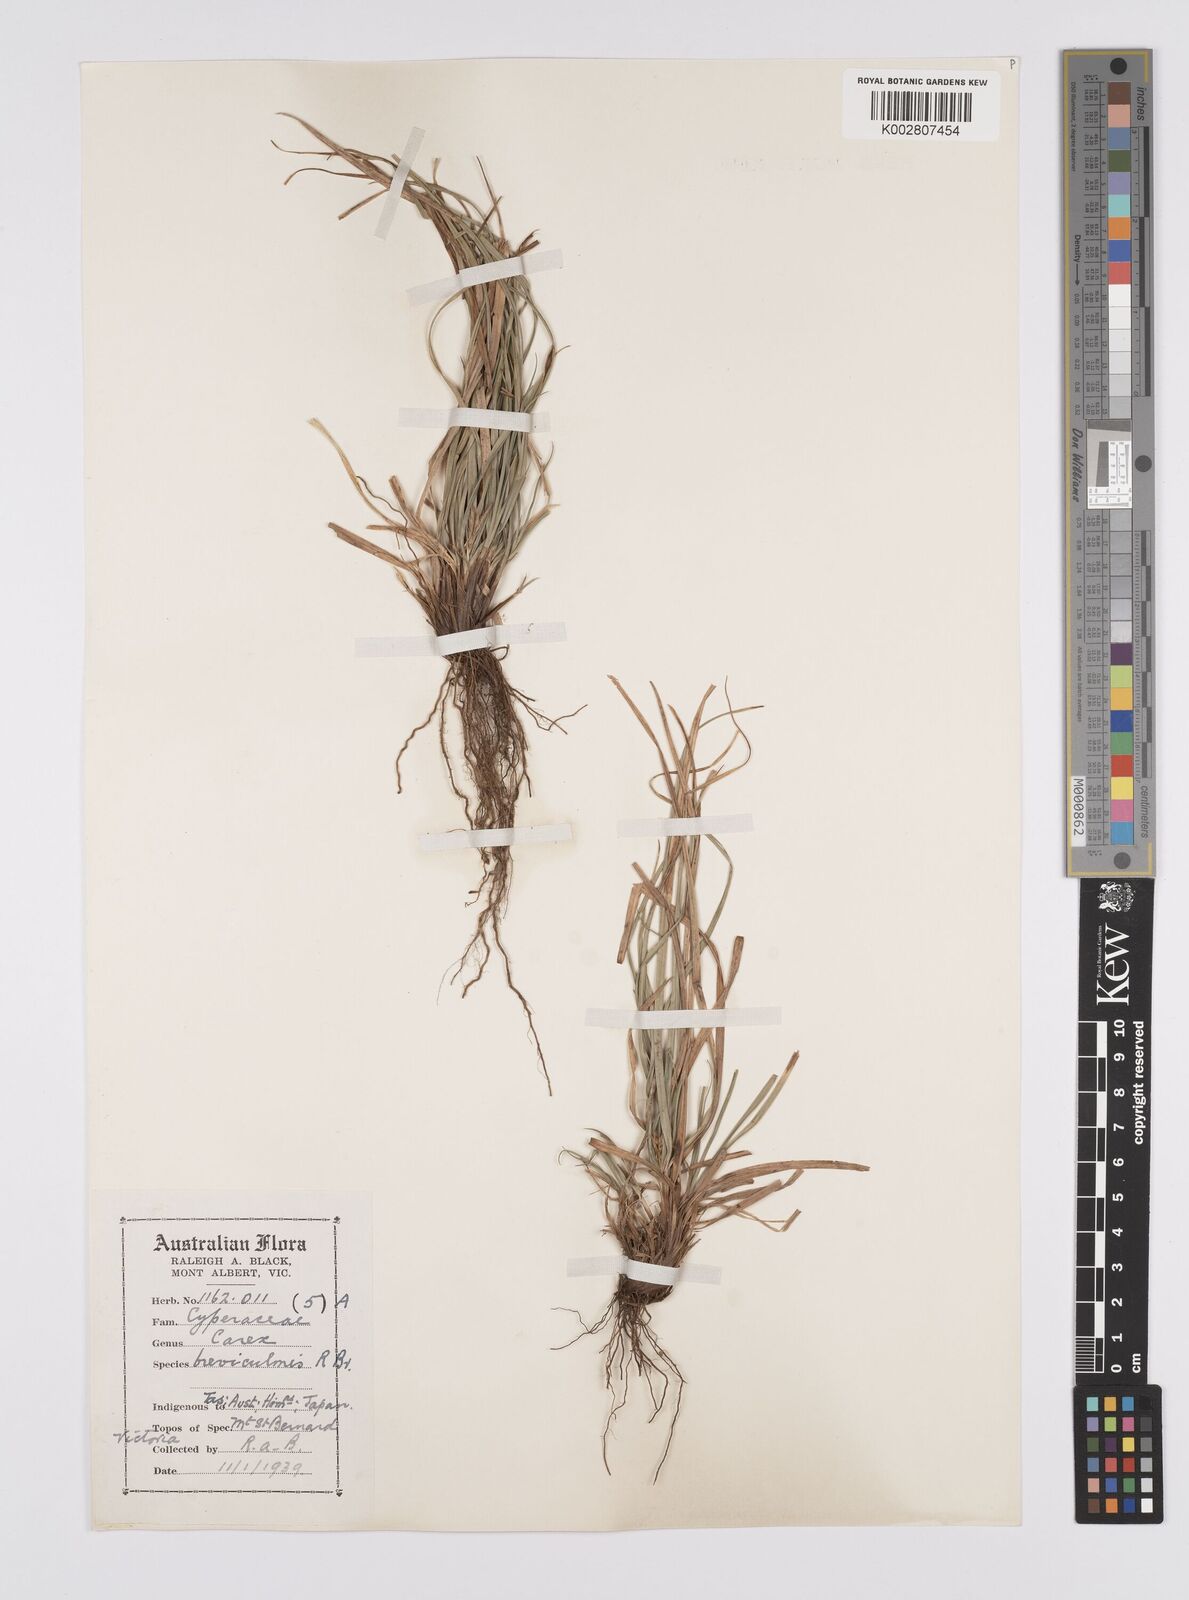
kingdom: Plantae
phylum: Tracheophyta
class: Liliopsida
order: Poales
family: Cyperaceae
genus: Carex
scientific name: Carex breviculmis
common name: Asian shortstem sedge
